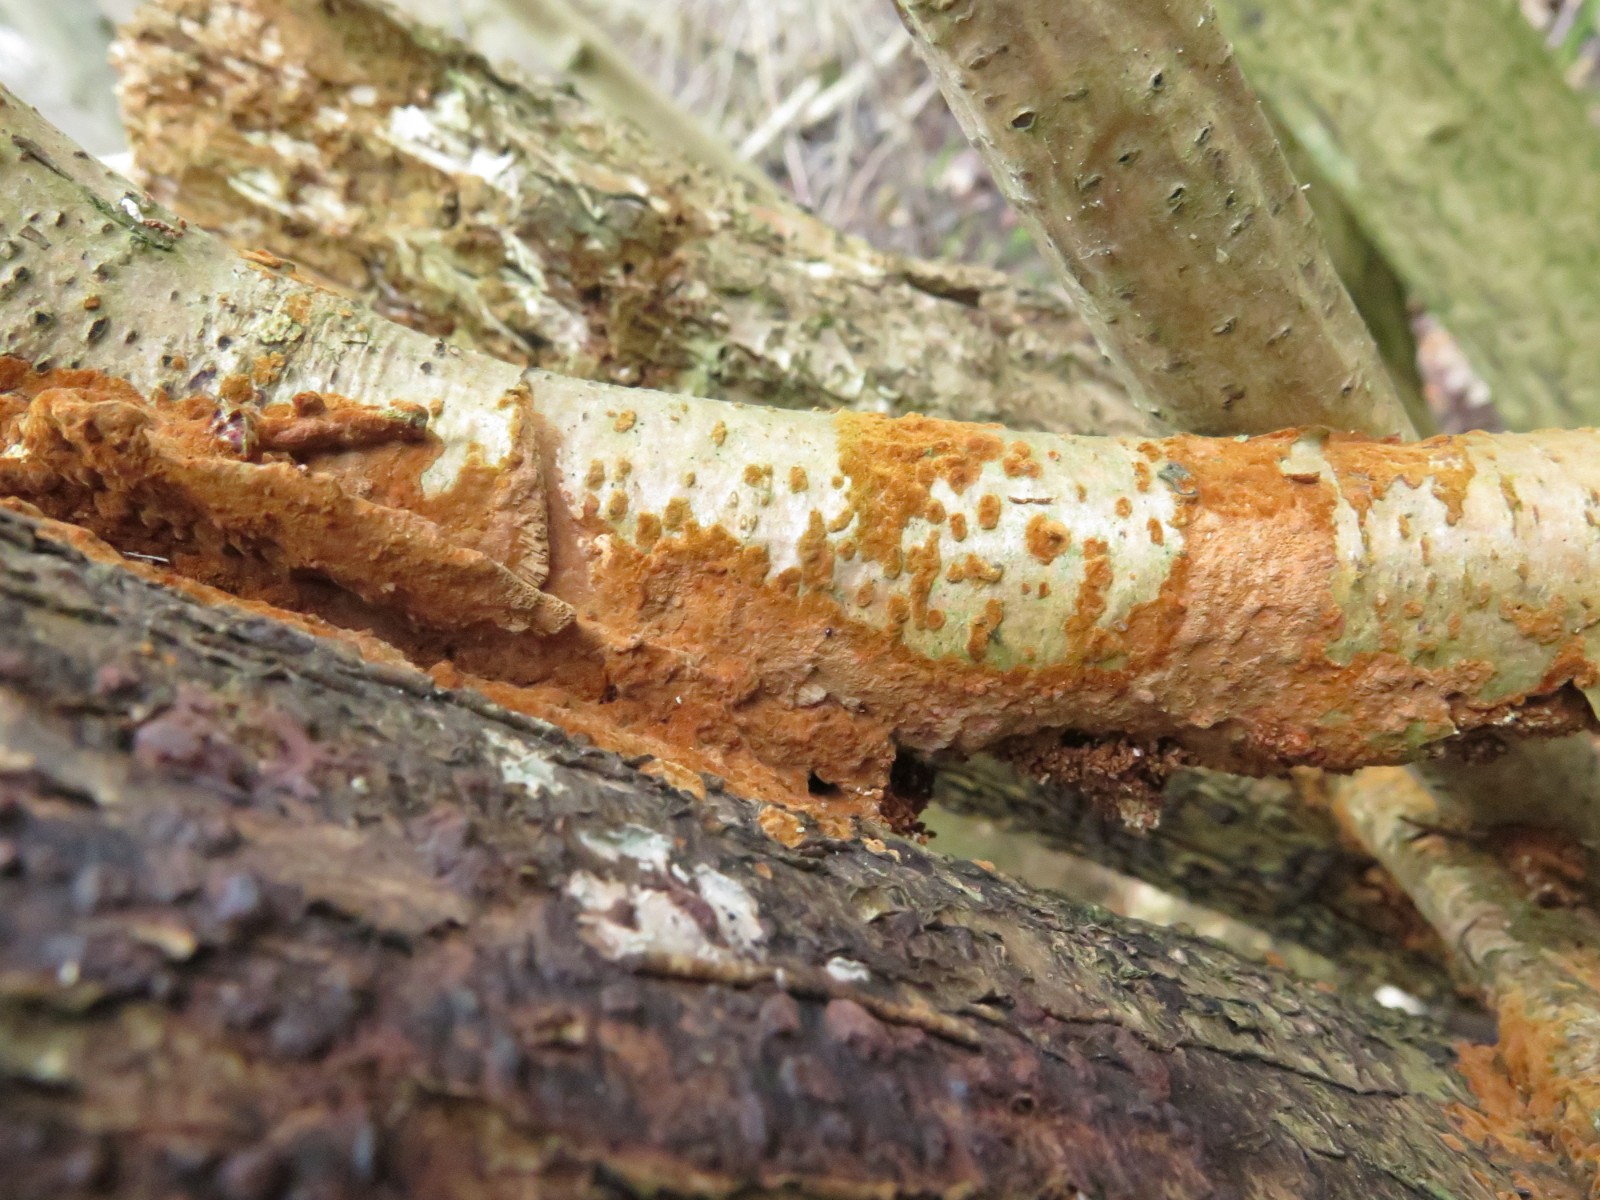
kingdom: Fungi
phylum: Basidiomycota
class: Agaricomycetes
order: Hymenochaetales
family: Hymenochaetaceae
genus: Fuscoporia
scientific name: Fuscoporia ferrea
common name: skorpe-ildporesvamp
